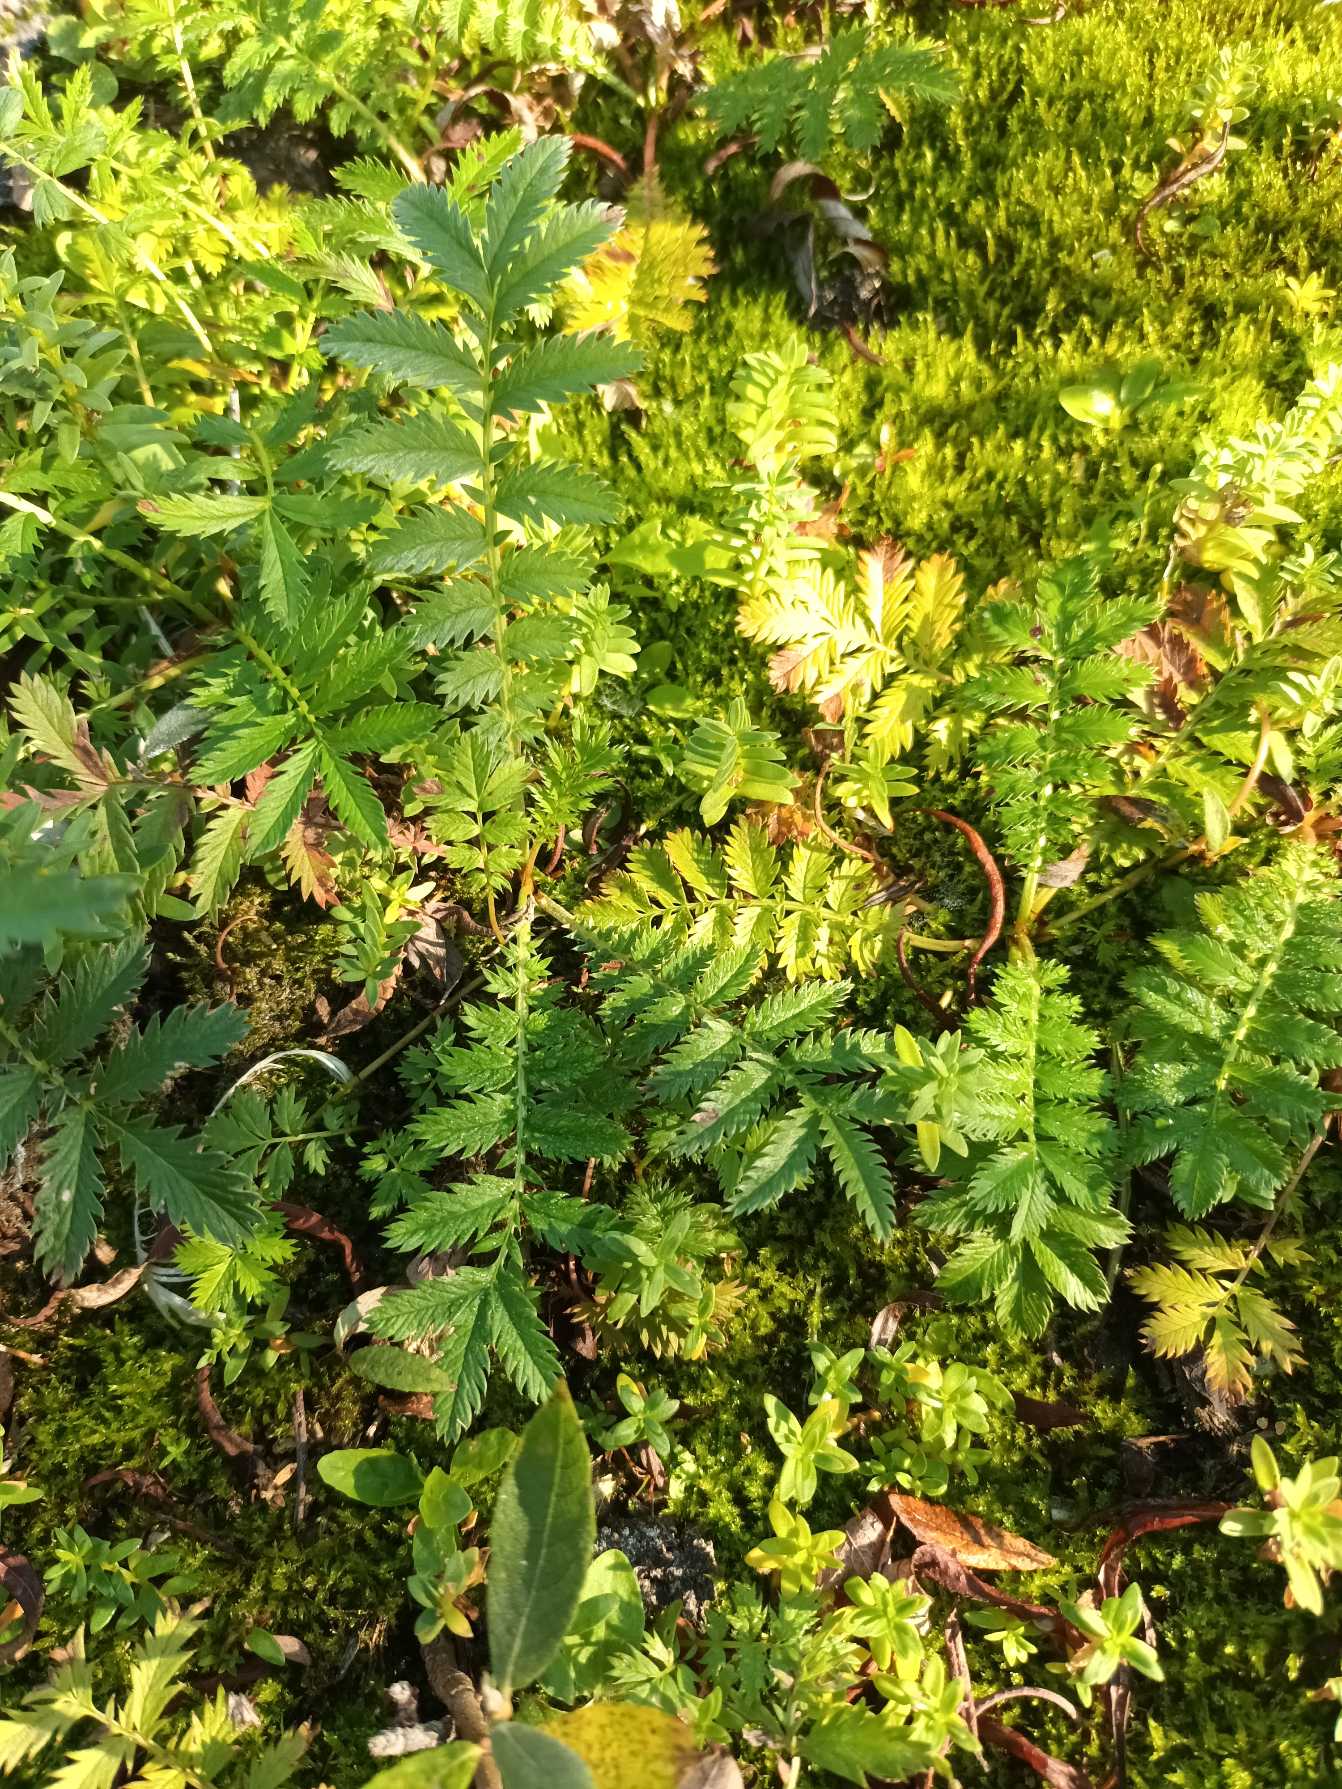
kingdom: Plantae
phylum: Tracheophyta
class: Magnoliopsida
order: Rosales
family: Rosaceae
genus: Argentina
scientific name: Argentina anserina
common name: Gåsepotentil
